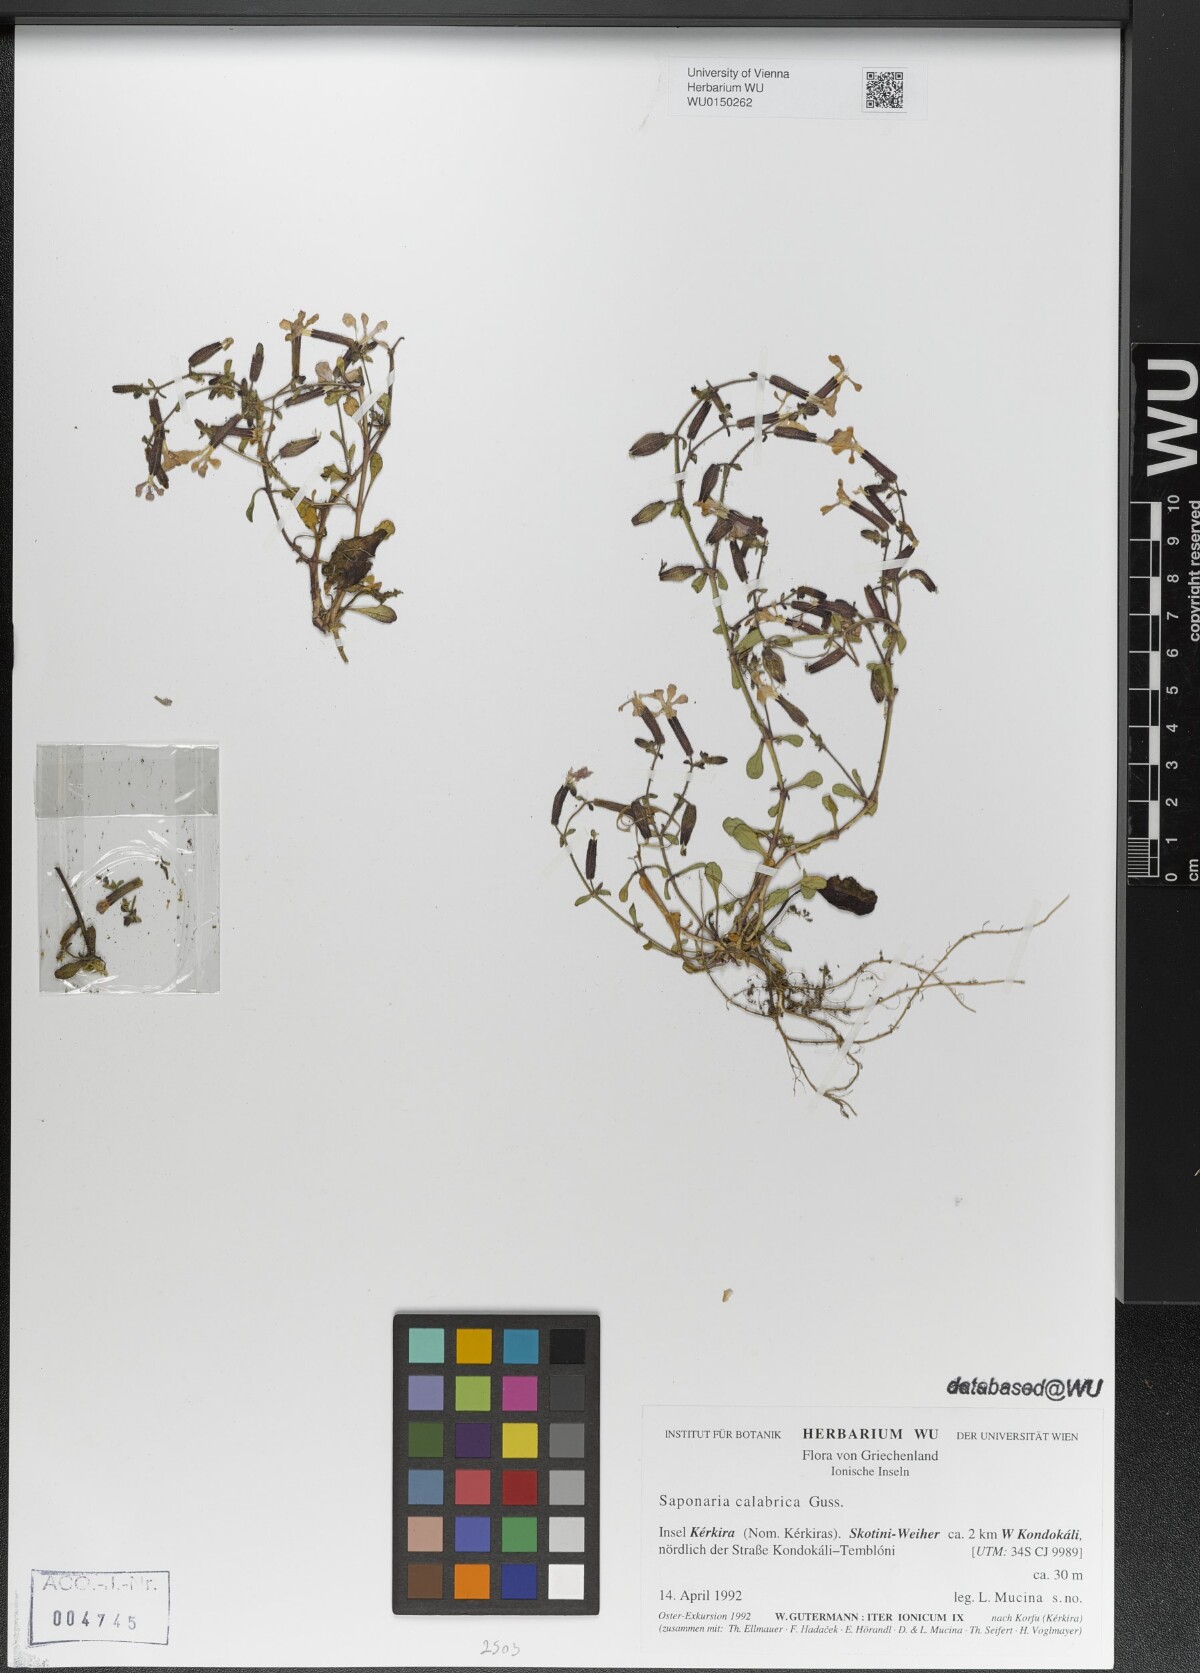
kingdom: Plantae
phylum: Tracheophyta
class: Magnoliopsida
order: Caryophyllales
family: Caryophyllaceae
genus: Saponaria
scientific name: Saponaria calabrica
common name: Adriatic soapwort
